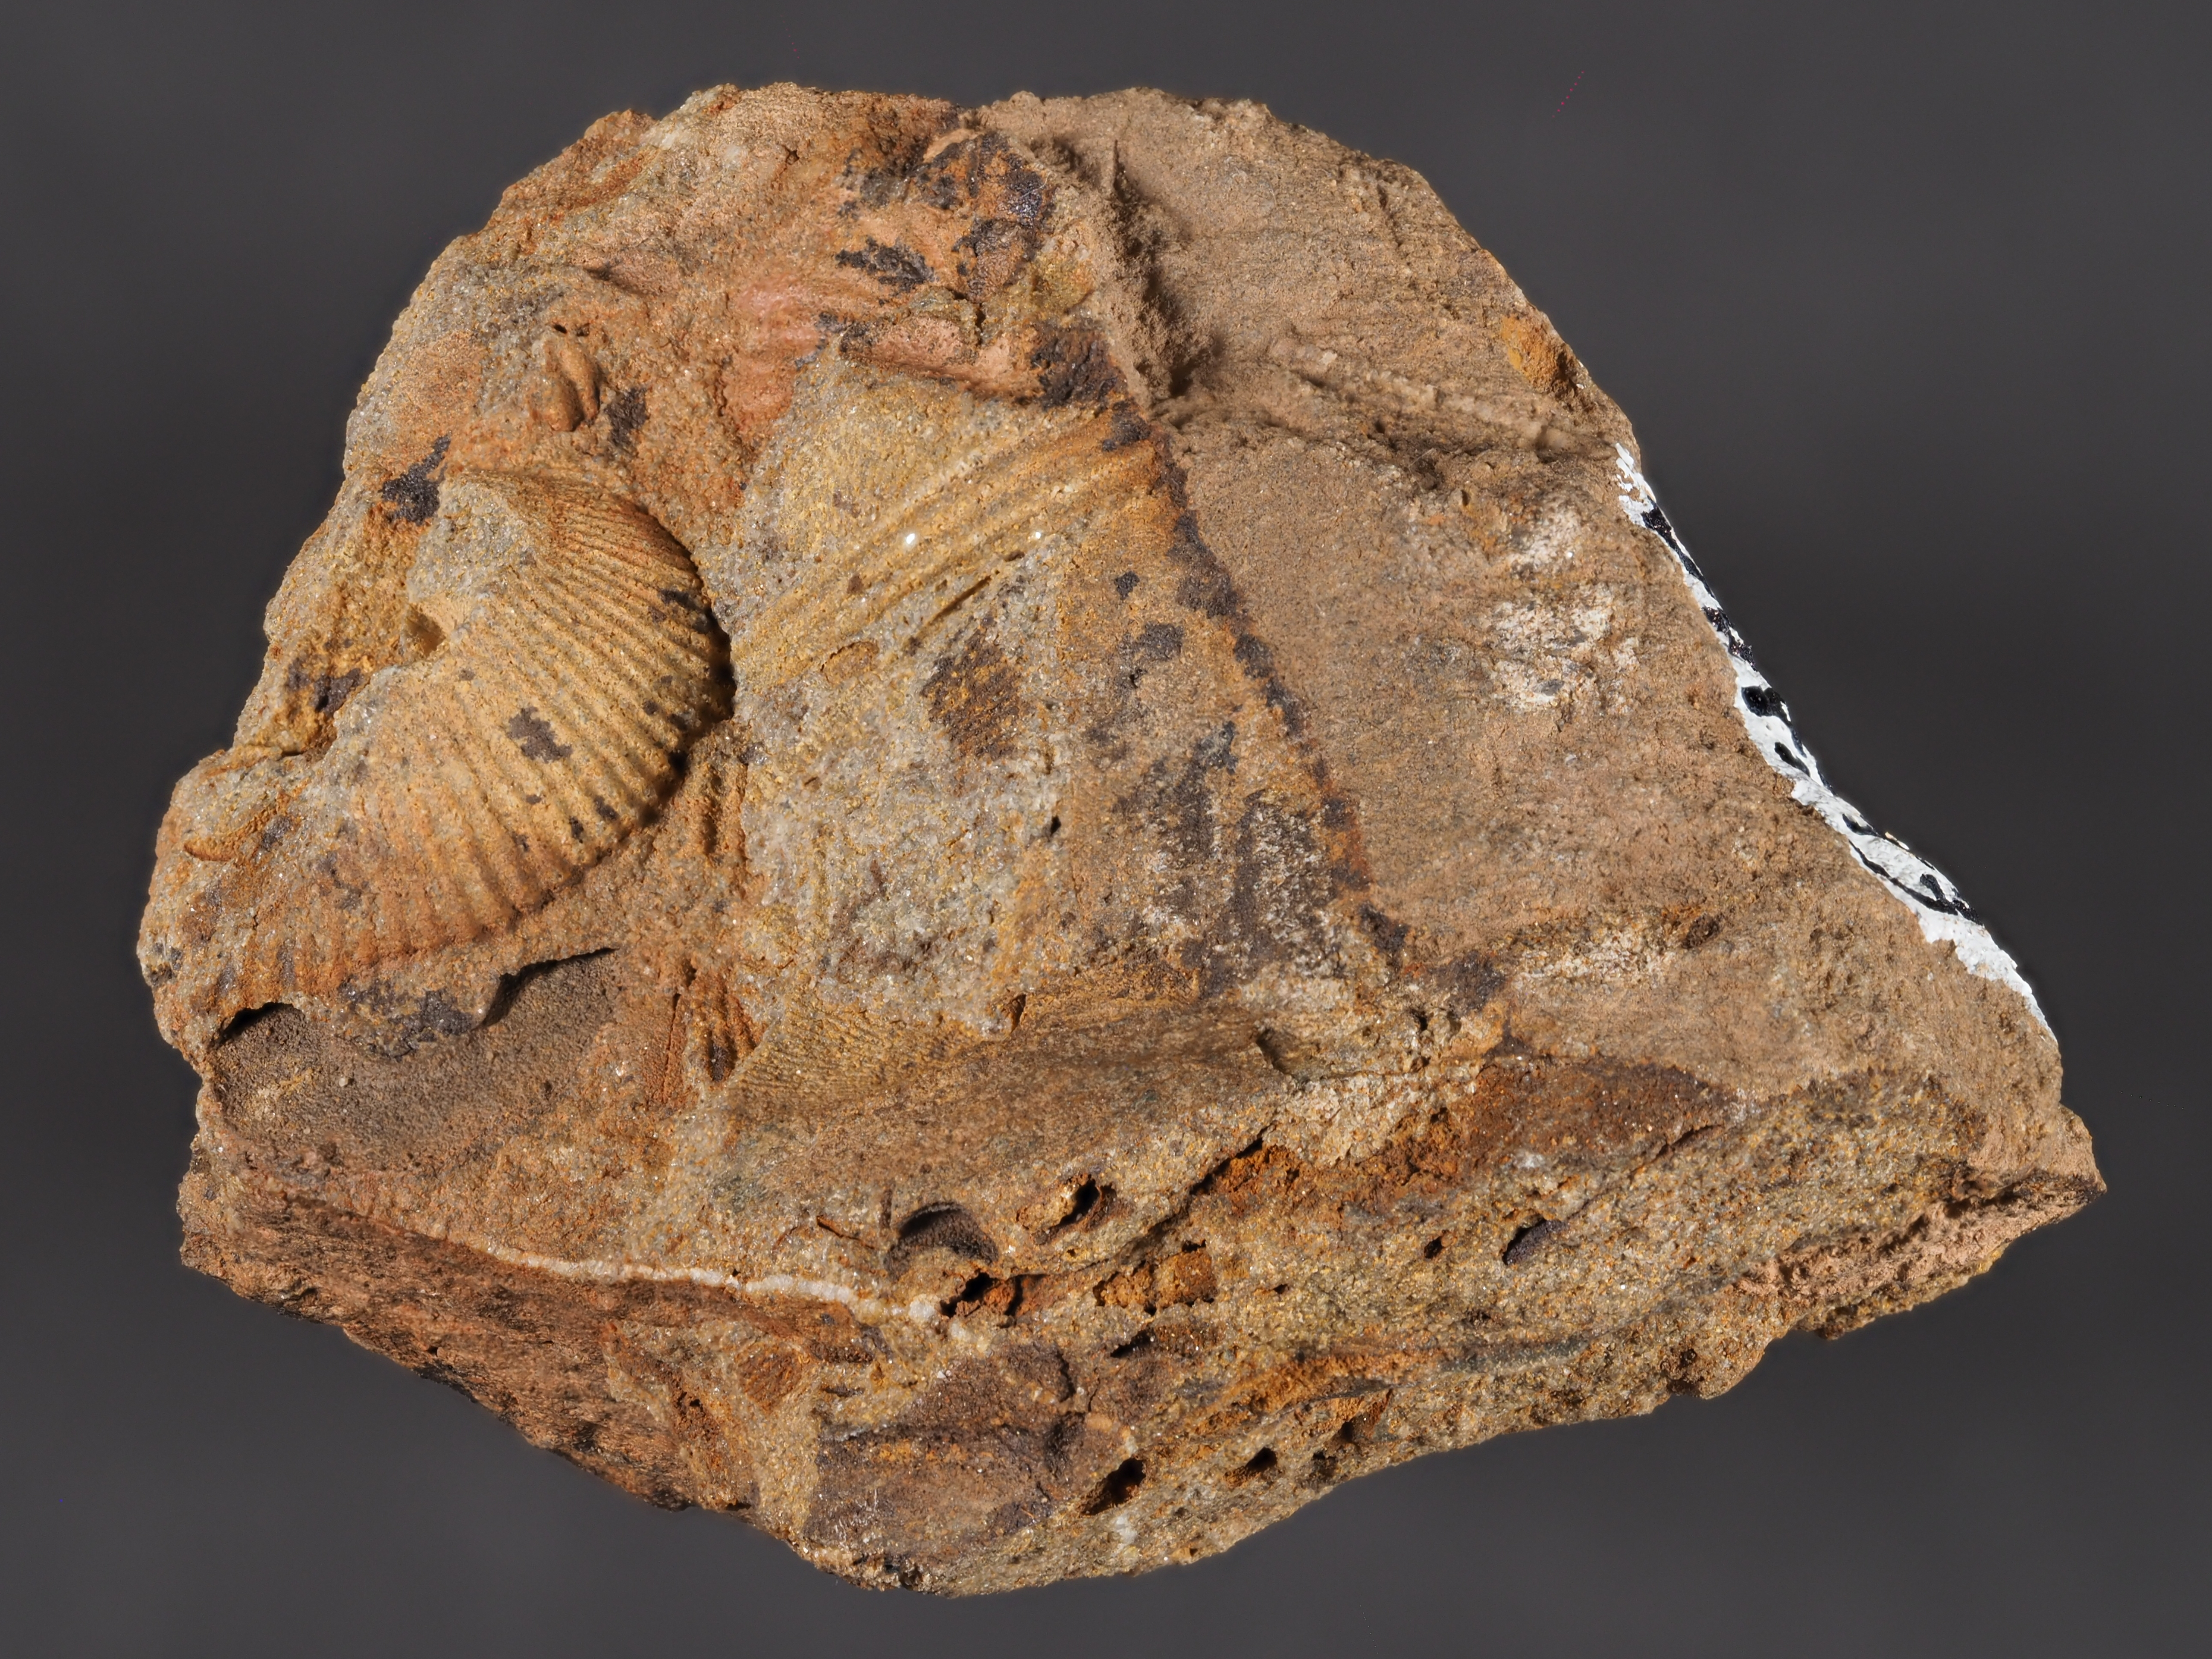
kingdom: Animalia
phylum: Brachiopoda
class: Rhynchonellata
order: Terebratulida
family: Mutationellidae
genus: Mutationella
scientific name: Mutationella
